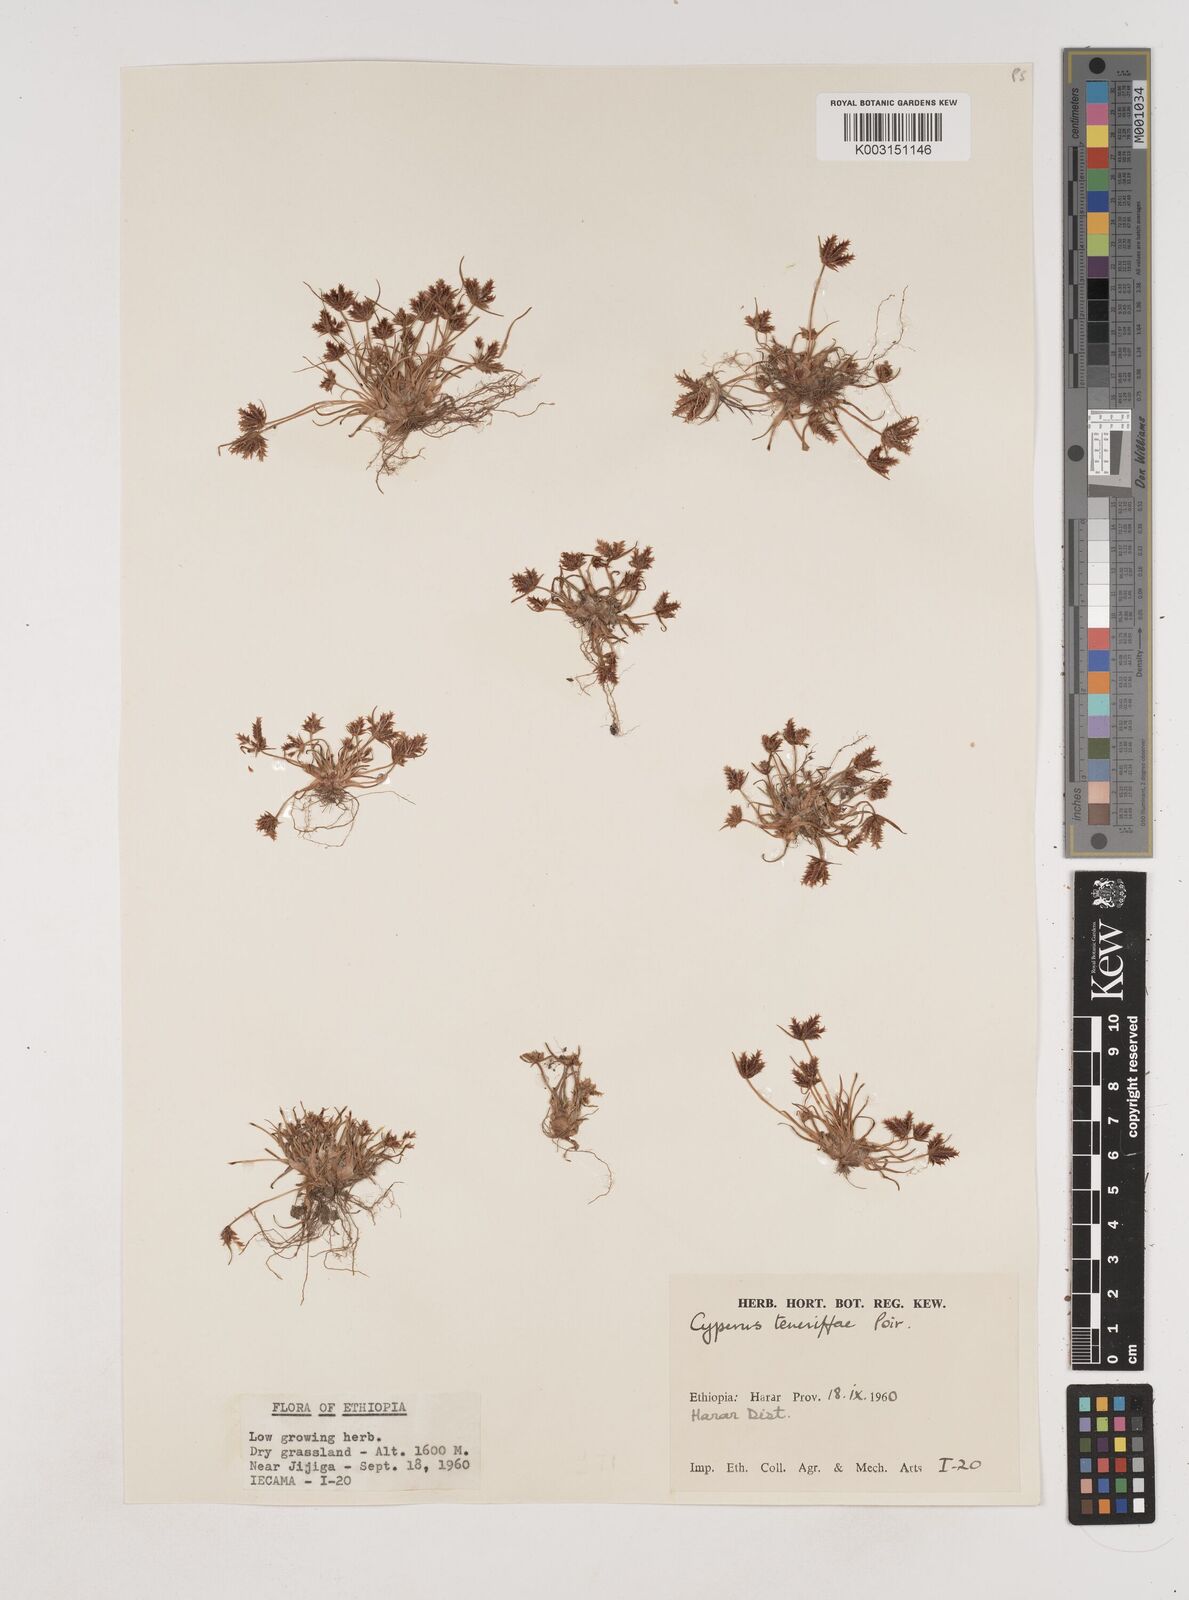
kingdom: Plantae
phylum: Tracheophyta
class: Liliopsida
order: Poales
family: Cyperaceae
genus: Cyperus
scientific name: Cyperus rubicundus
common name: Coco-grass
